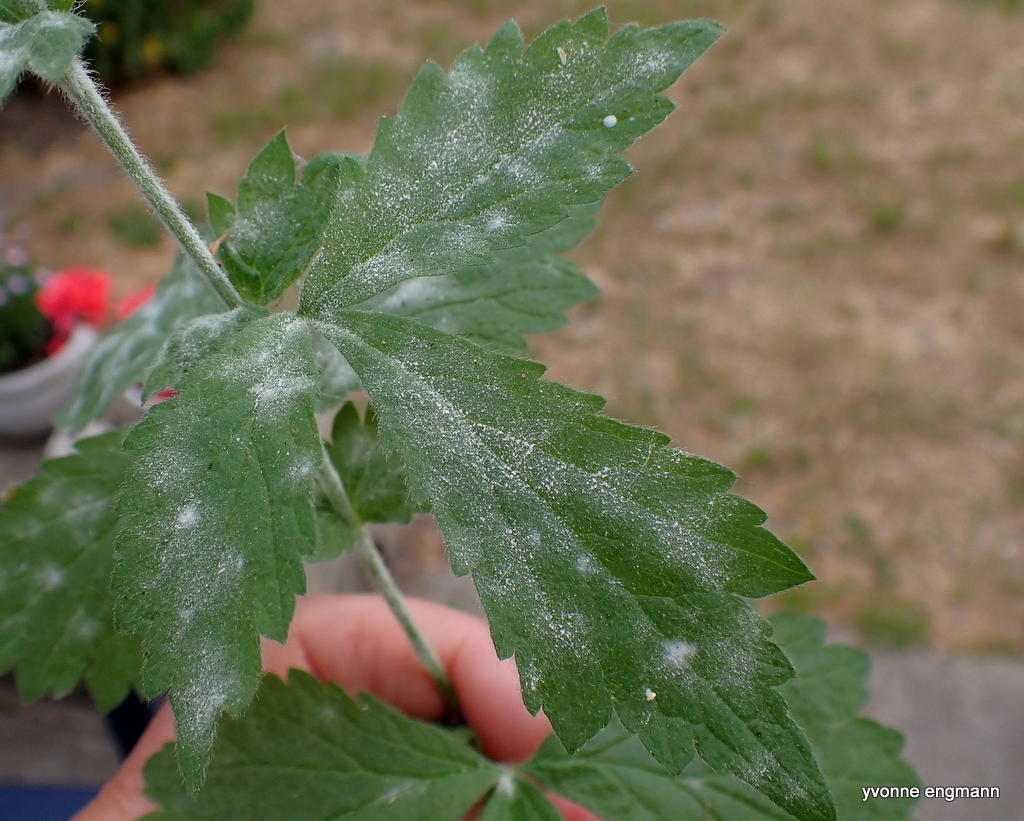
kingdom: Fungi
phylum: Ascomycota
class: Leotiomycetes
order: Helotiales
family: Erysiphaceae
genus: Podosphaera
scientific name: Podosphaera aphanis
